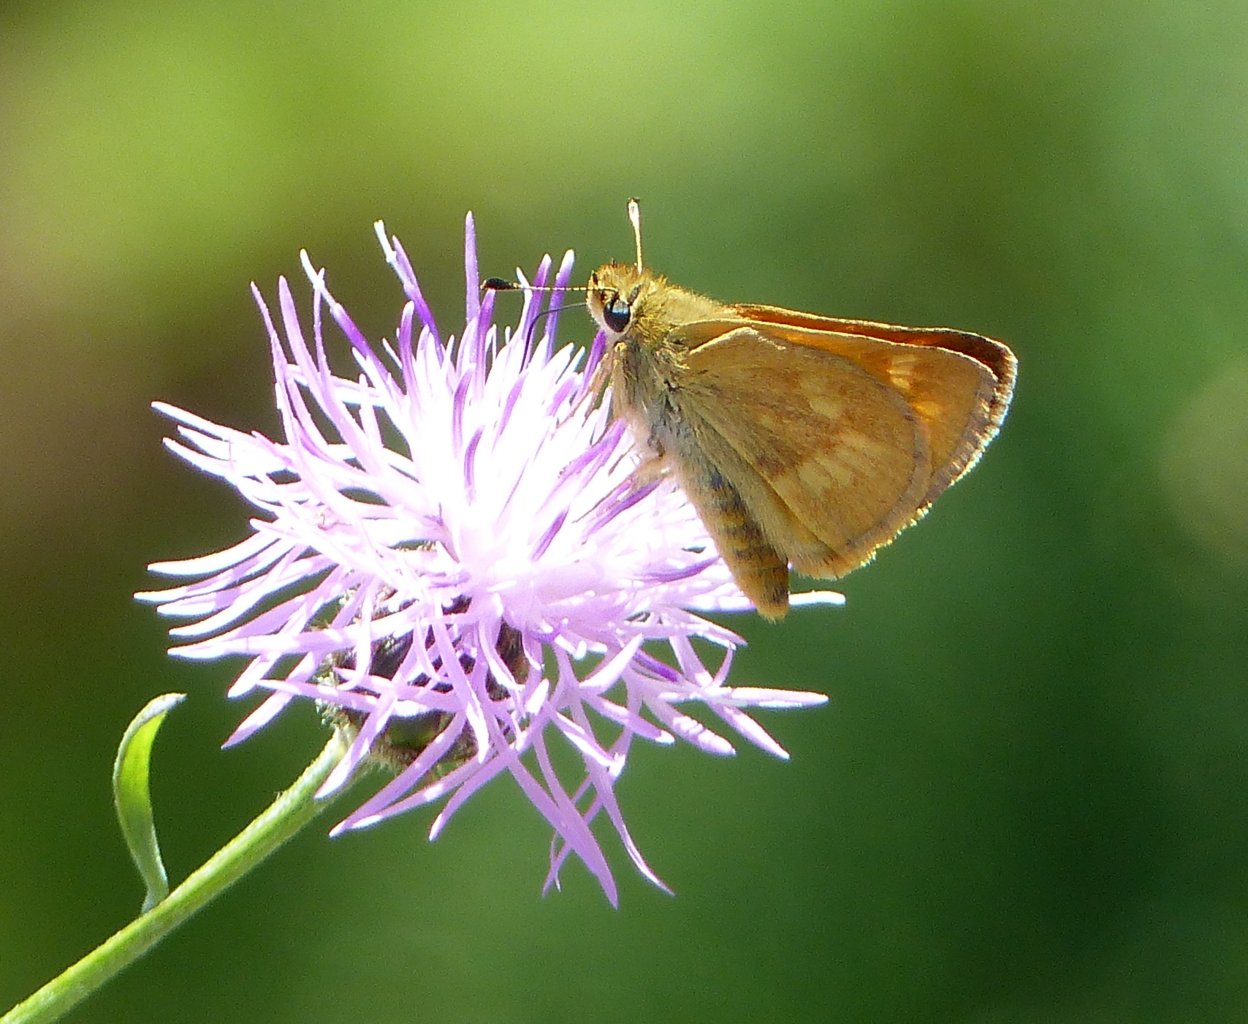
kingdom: Animalia
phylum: Arthropoda
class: Insecta
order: Lepidoptera
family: Hesperiidae
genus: Ochlodes
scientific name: Ochlodes sylvanoides
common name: Woodland Skipper
